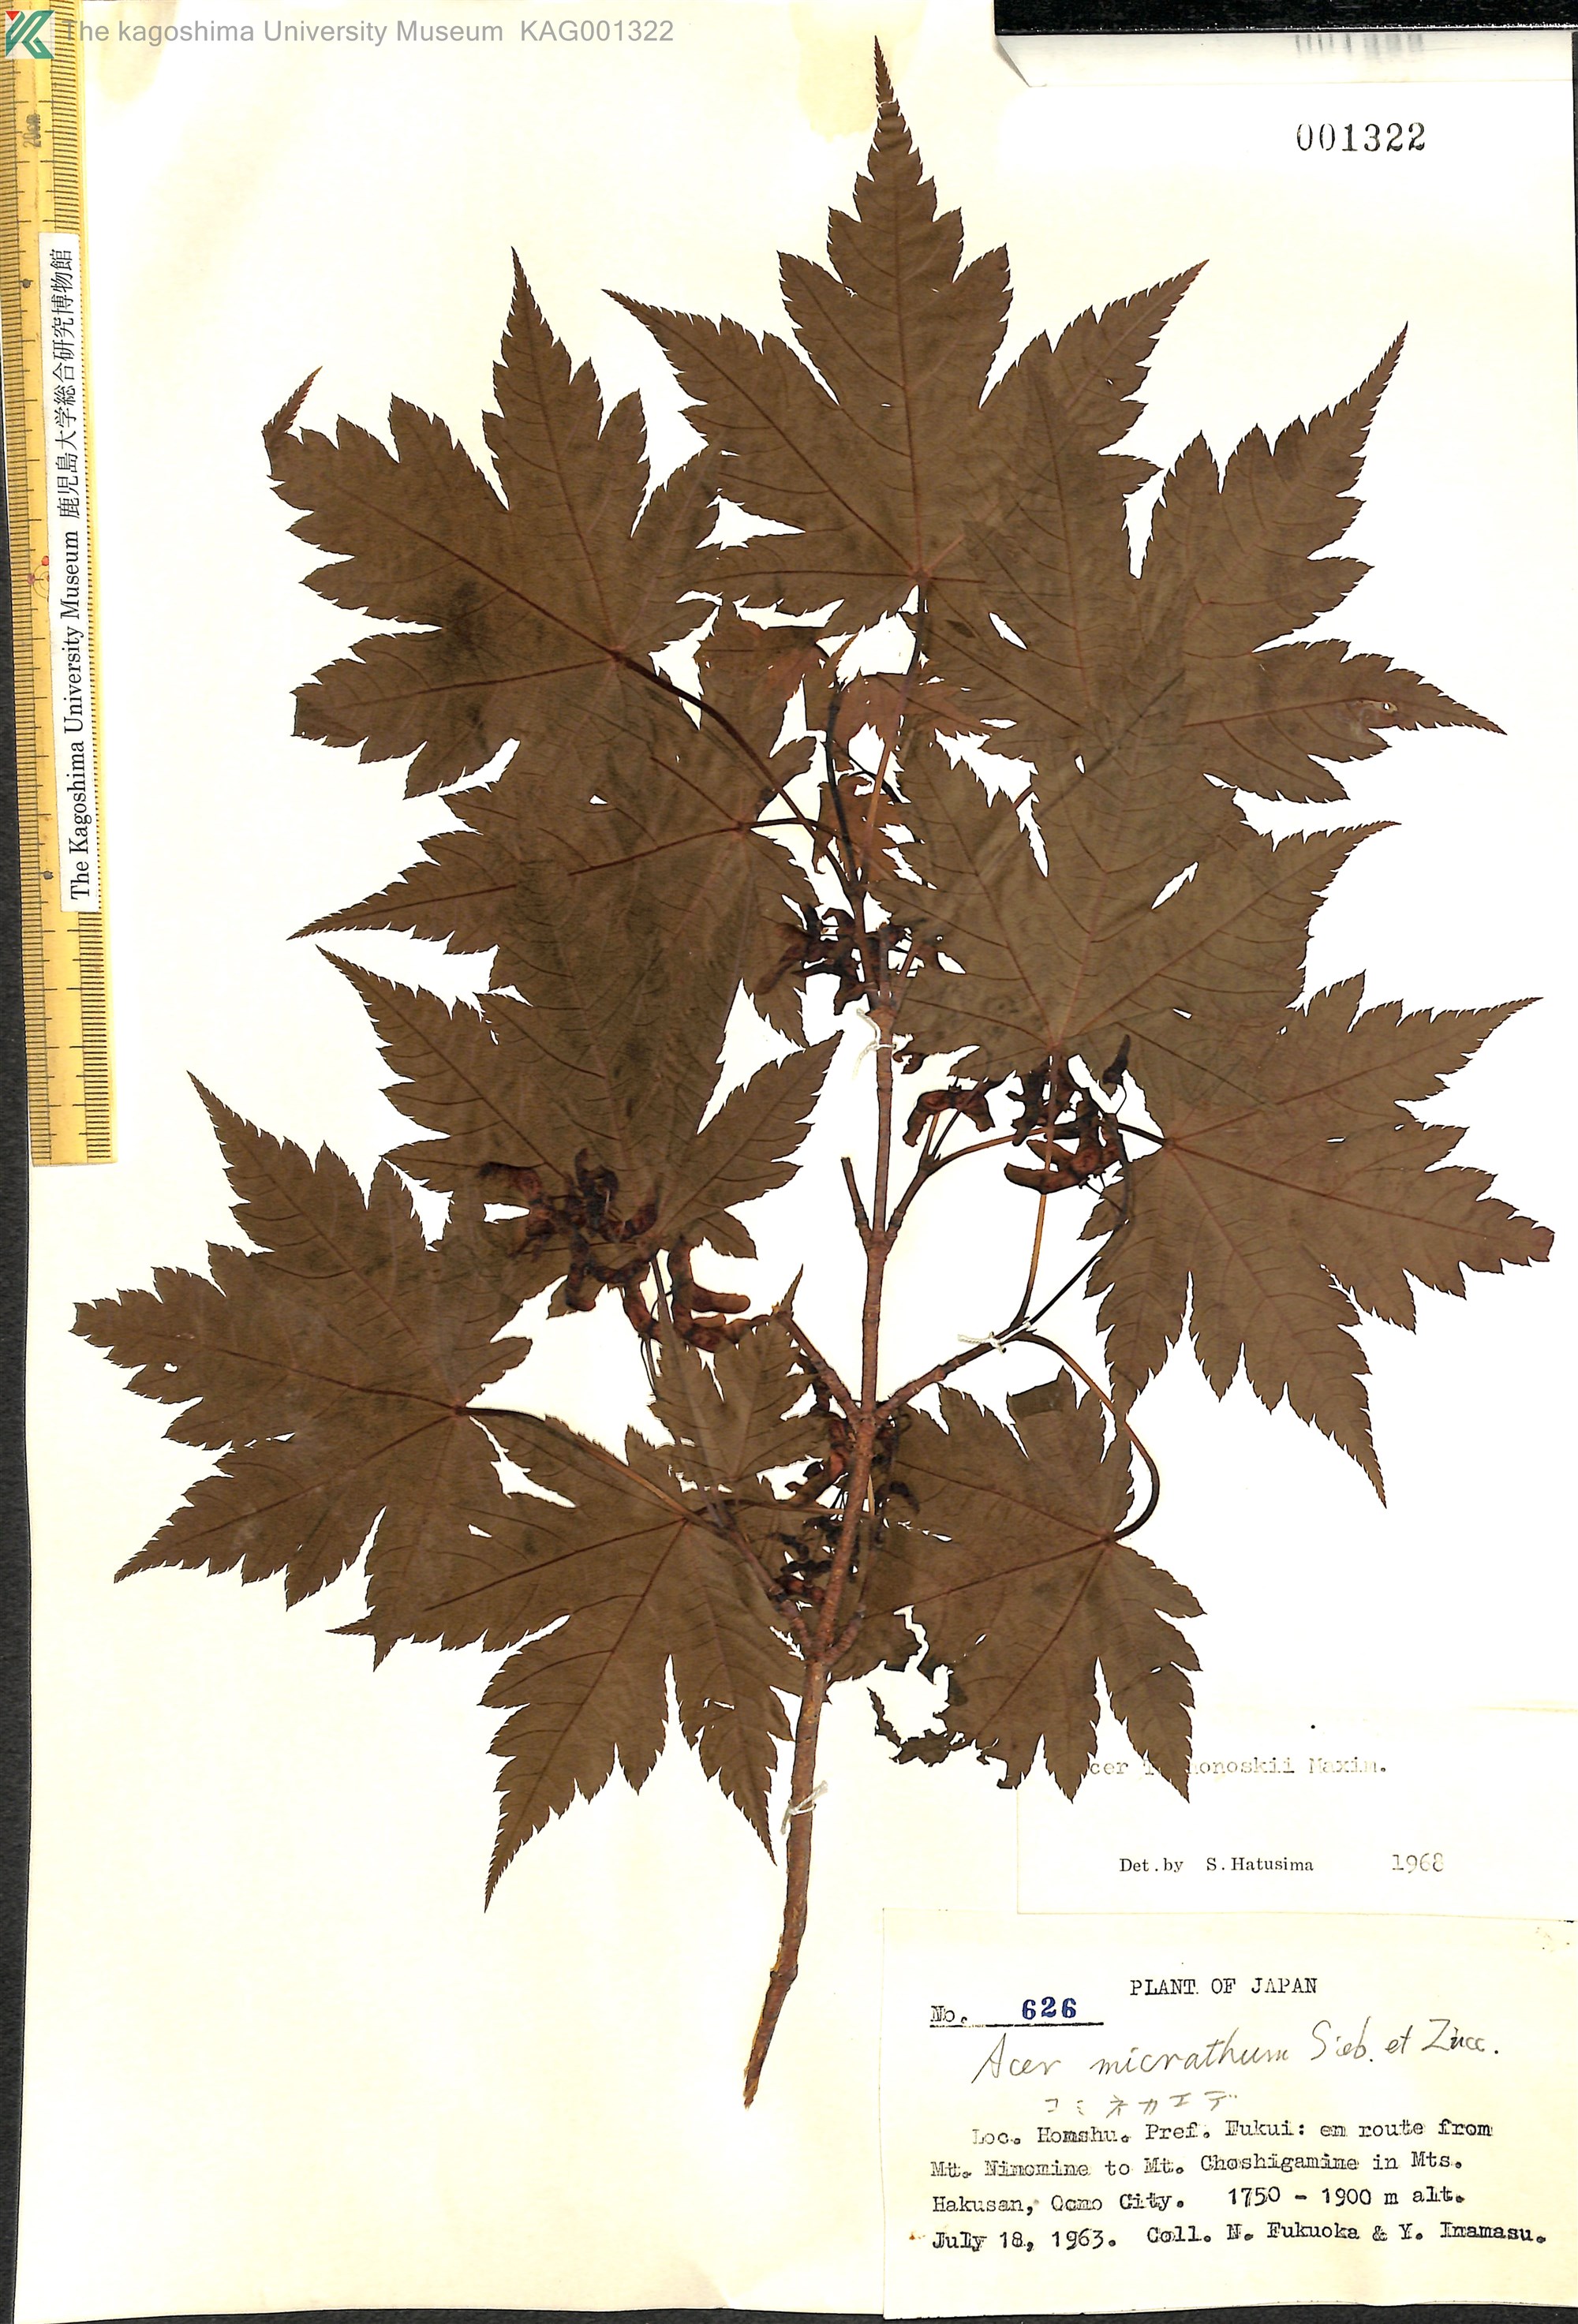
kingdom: Plantae
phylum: Tracheophyta
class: Magnoliopsida
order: Sapindales
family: Sapindaceae
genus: Acer
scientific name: Acer tschonoskii
